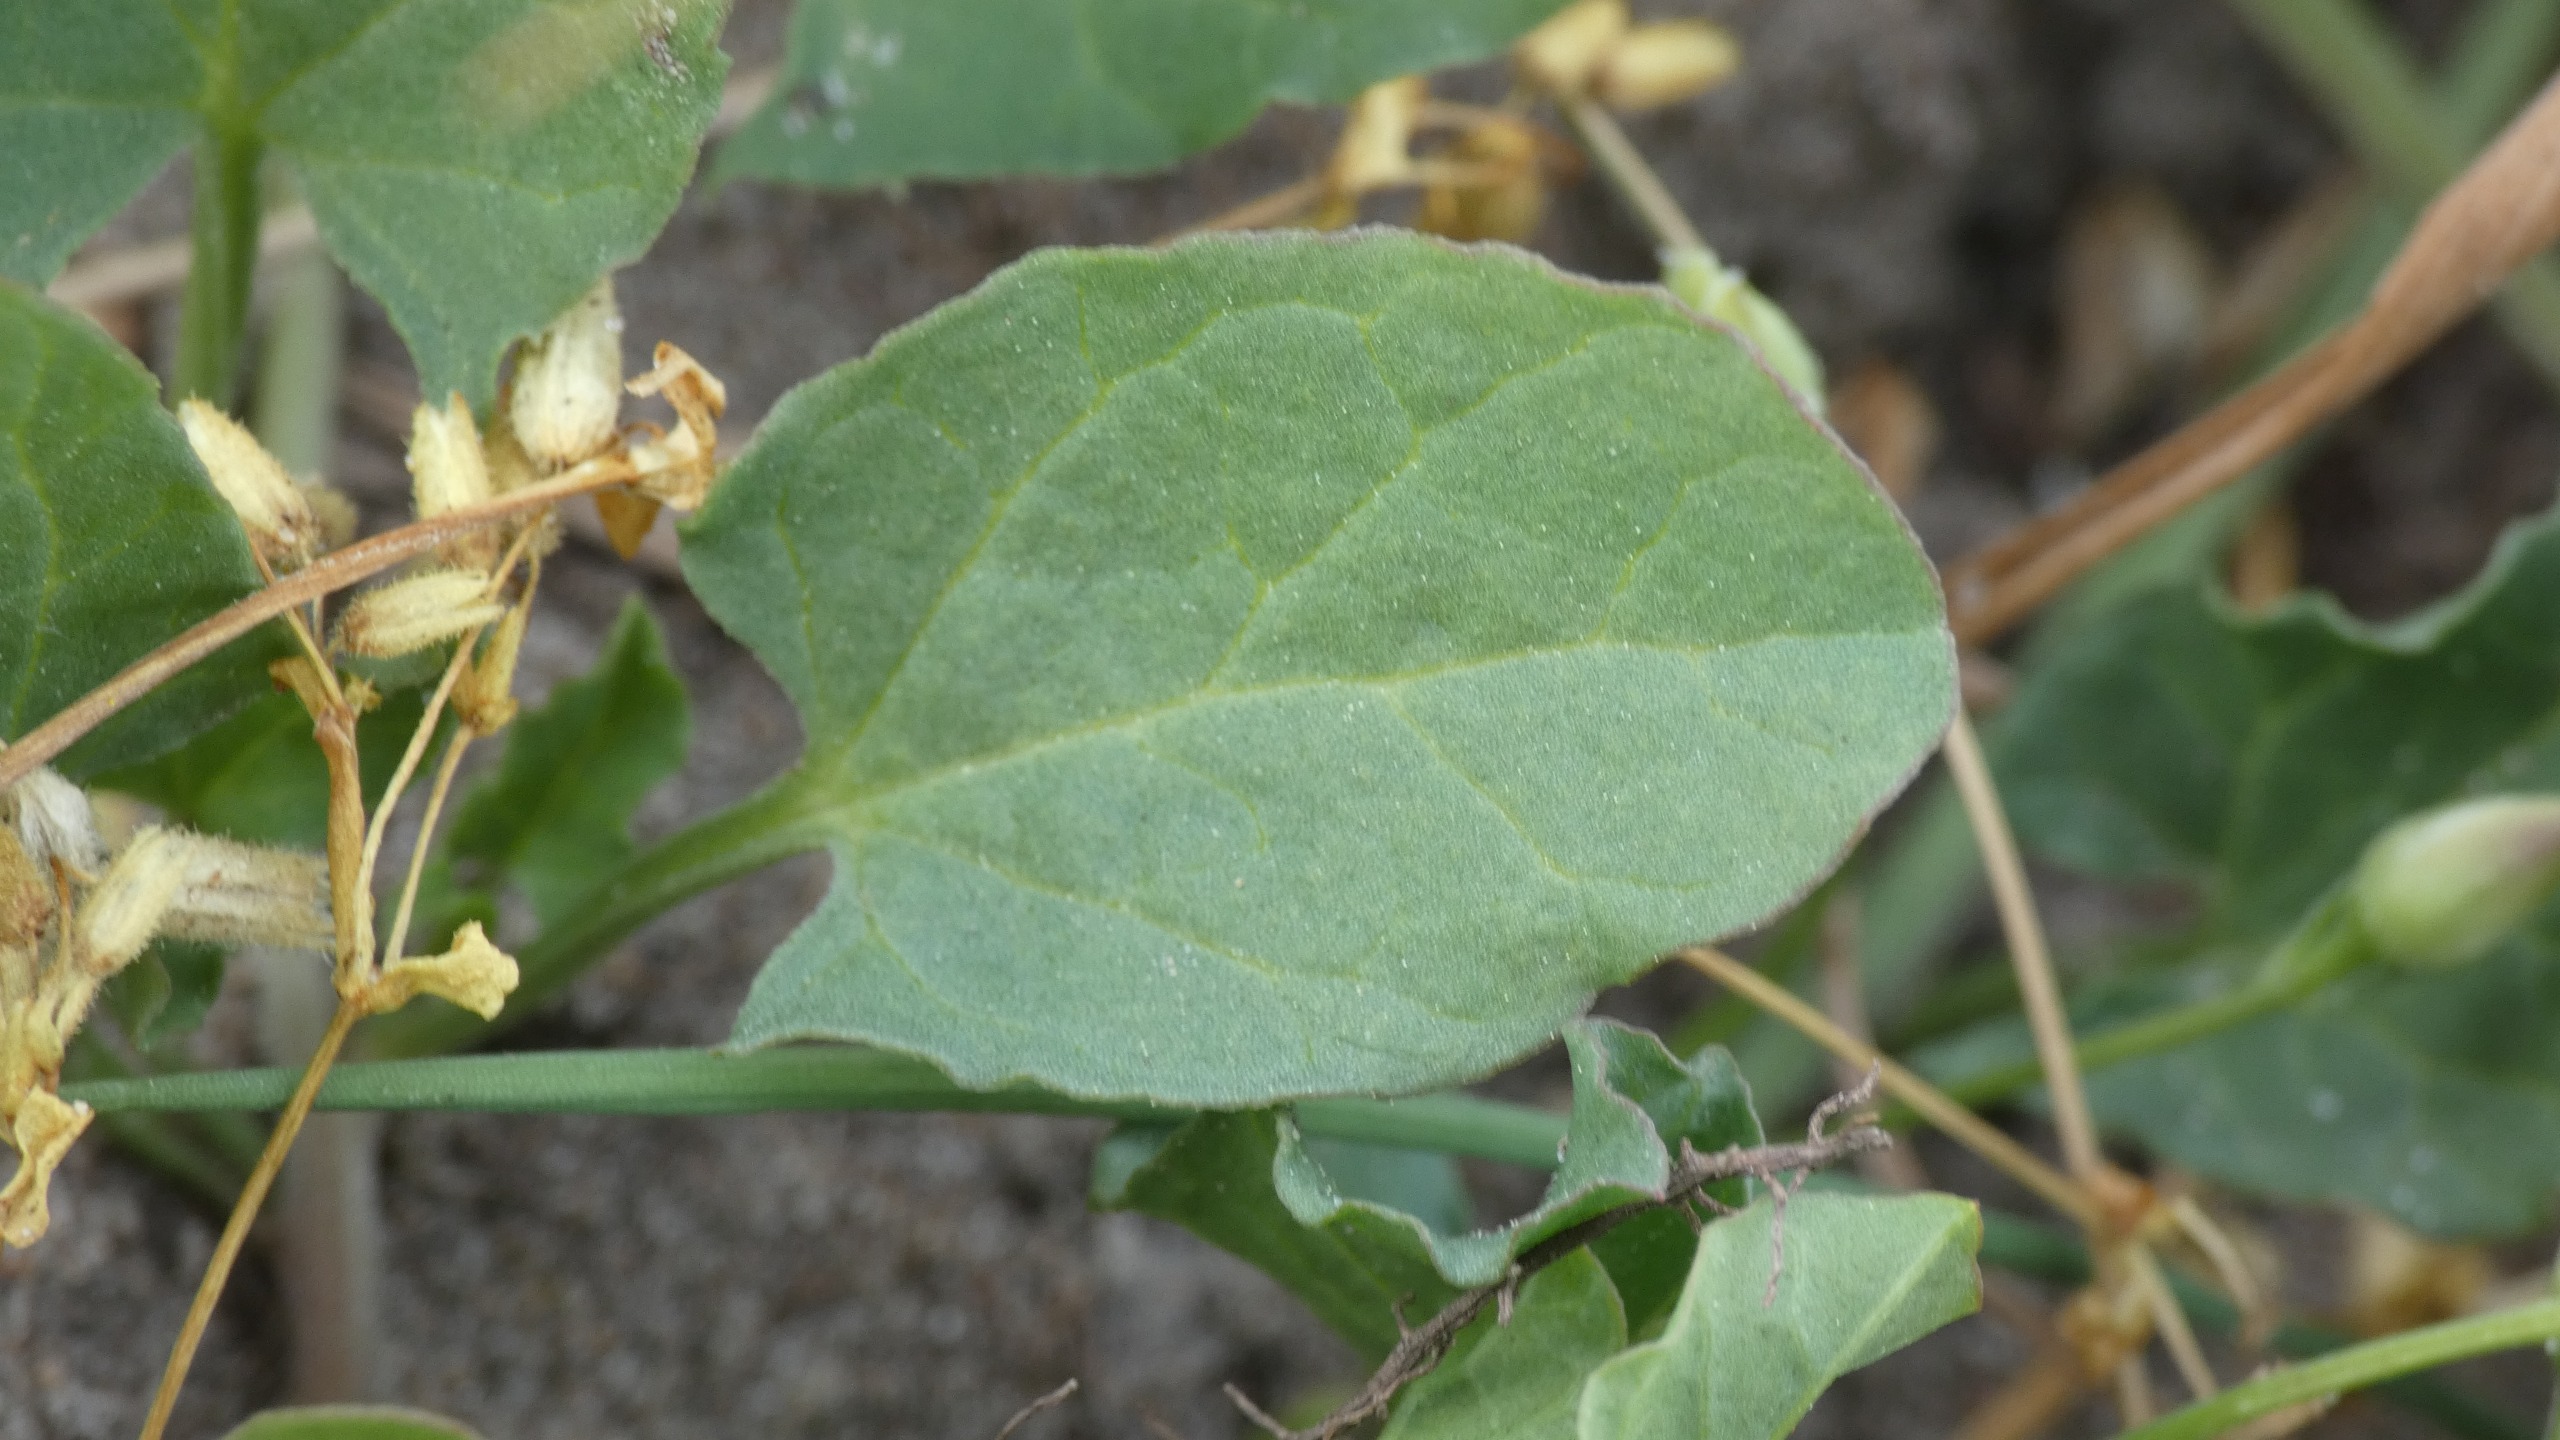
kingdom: Plantae
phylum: Tracheophyta
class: Magnoliopsida
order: Solanales
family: Convolvulaceae
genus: Convolvulus
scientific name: Convolvulus arvensis
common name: Ager-snerle
